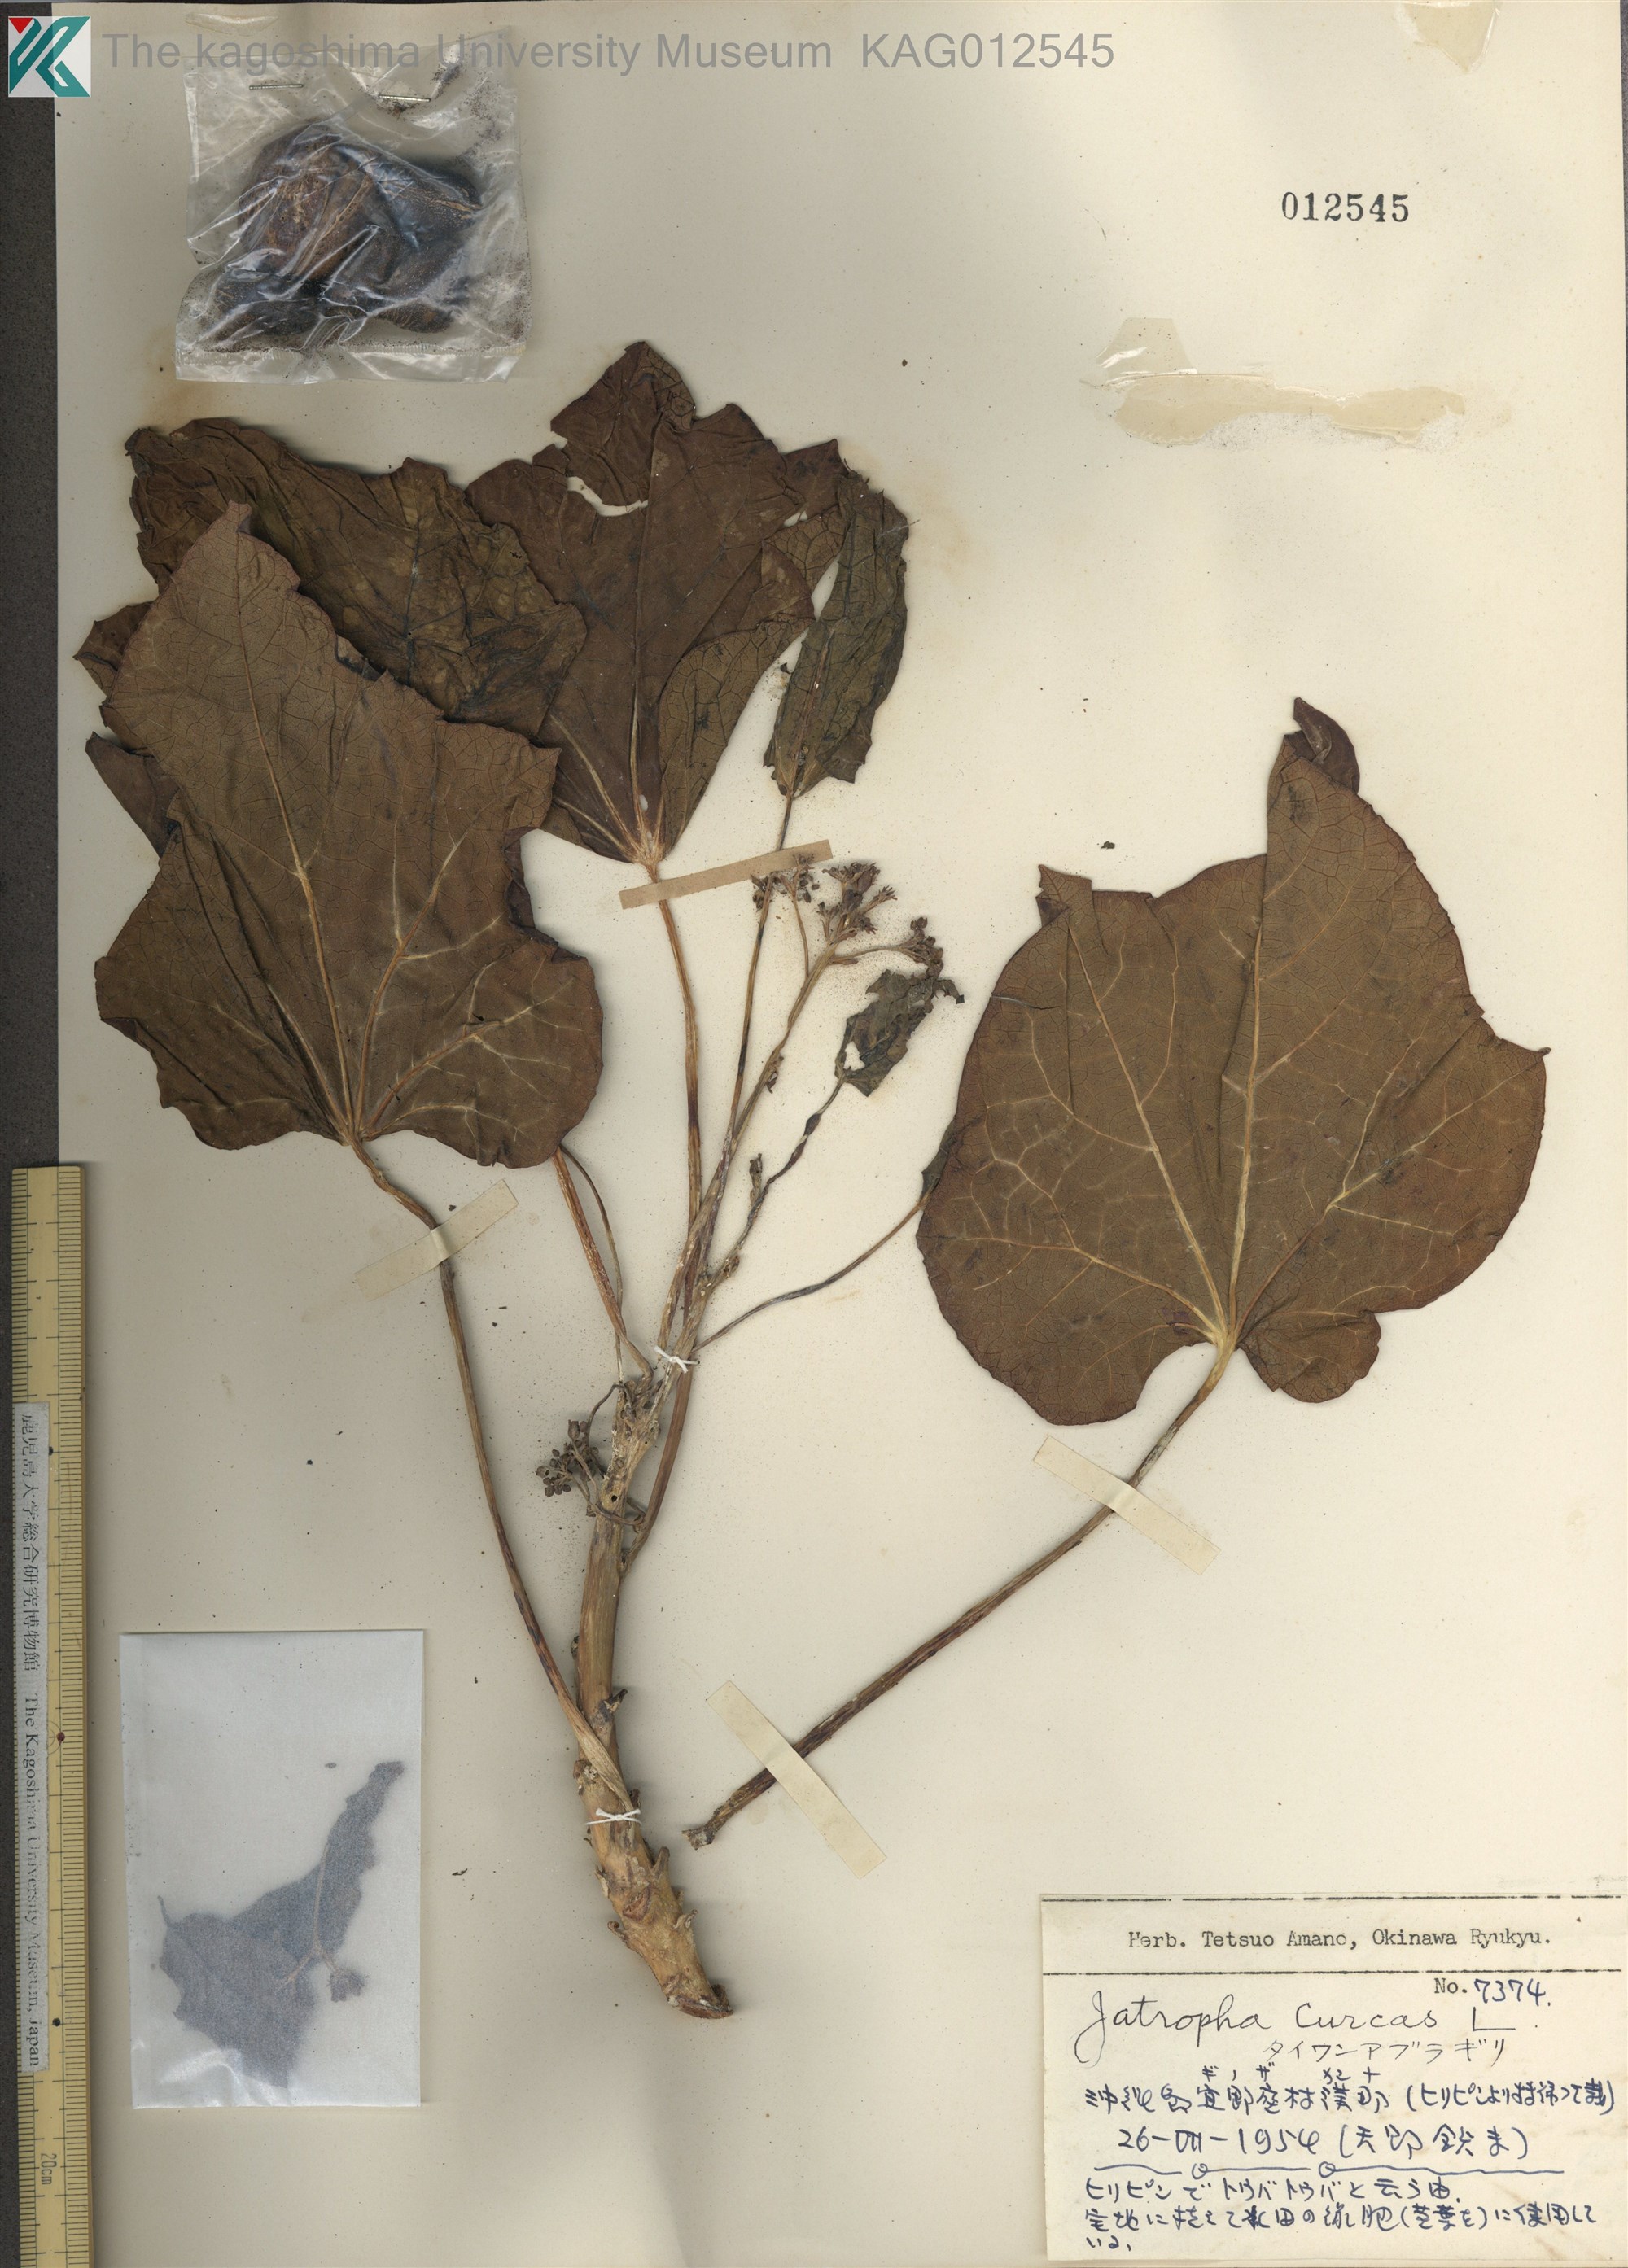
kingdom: Plantae
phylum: Tracheophyta
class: Magnoliopsida
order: Malpighiales
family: Euphorbiaceae
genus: Jatropha
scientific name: Jatropha curcas
